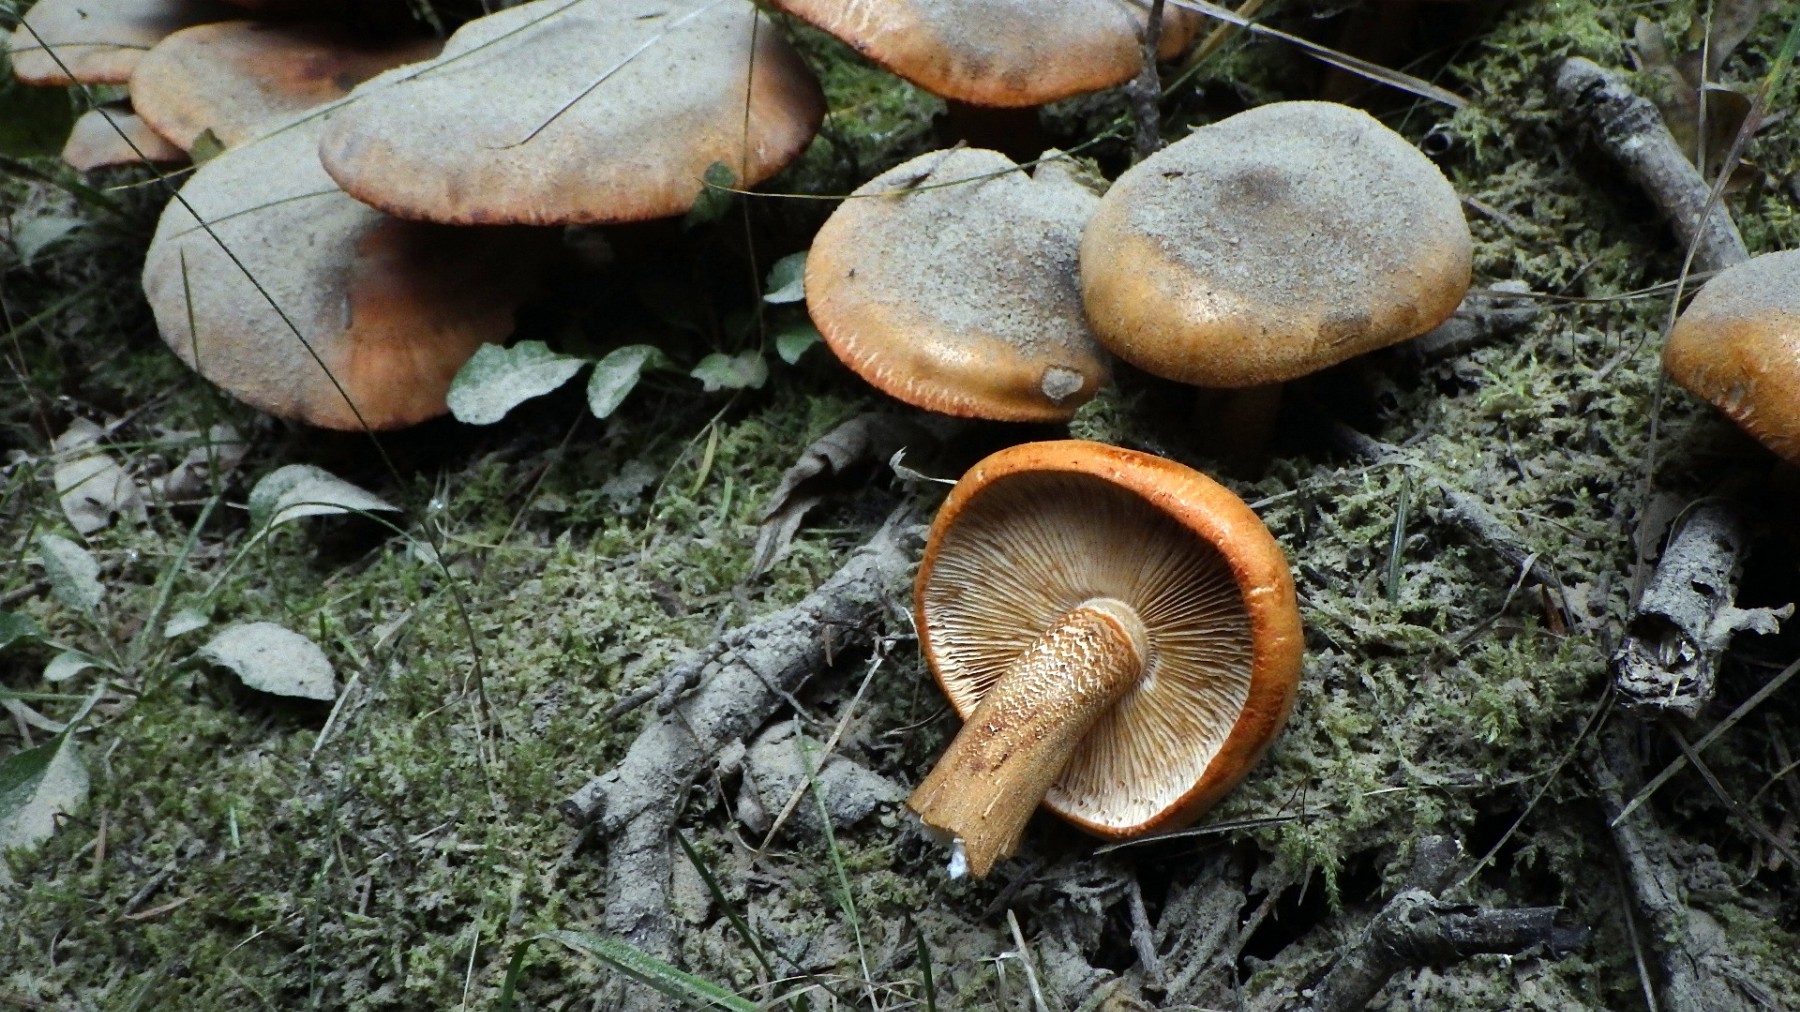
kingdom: Fungi
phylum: Basidiomycota
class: Agaricomycetes
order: Agaricales
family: Tricholomataceae
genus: Tricholoma
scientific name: Tricholoma aurantium
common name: orangegul ridderhat
